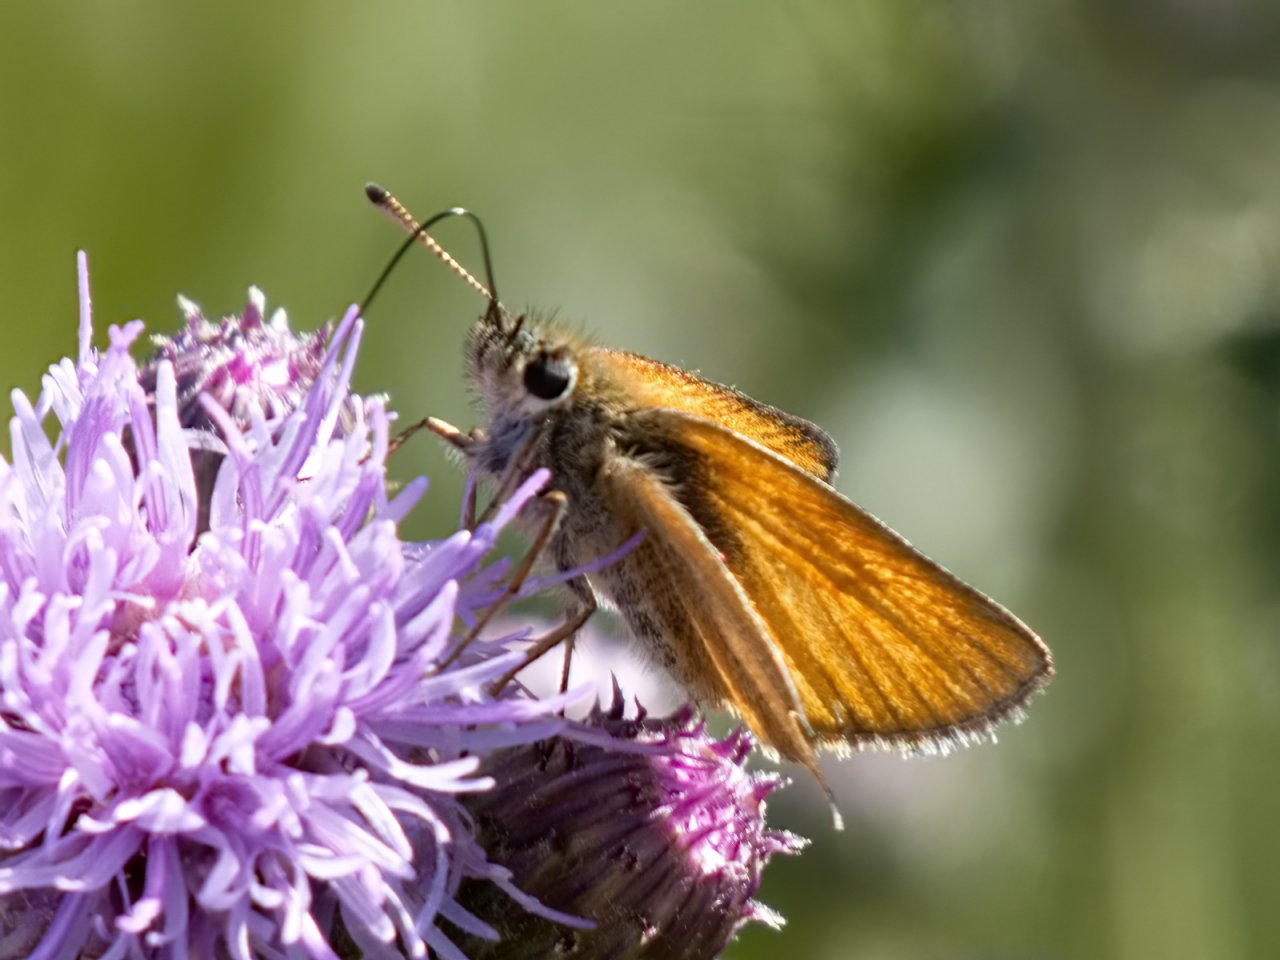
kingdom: Animalia
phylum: Arthropoda
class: Insecta
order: Lepidoptera
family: Hesperiidae
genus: Thymelicus
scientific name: Thymelicus lineola
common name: European Skipper
